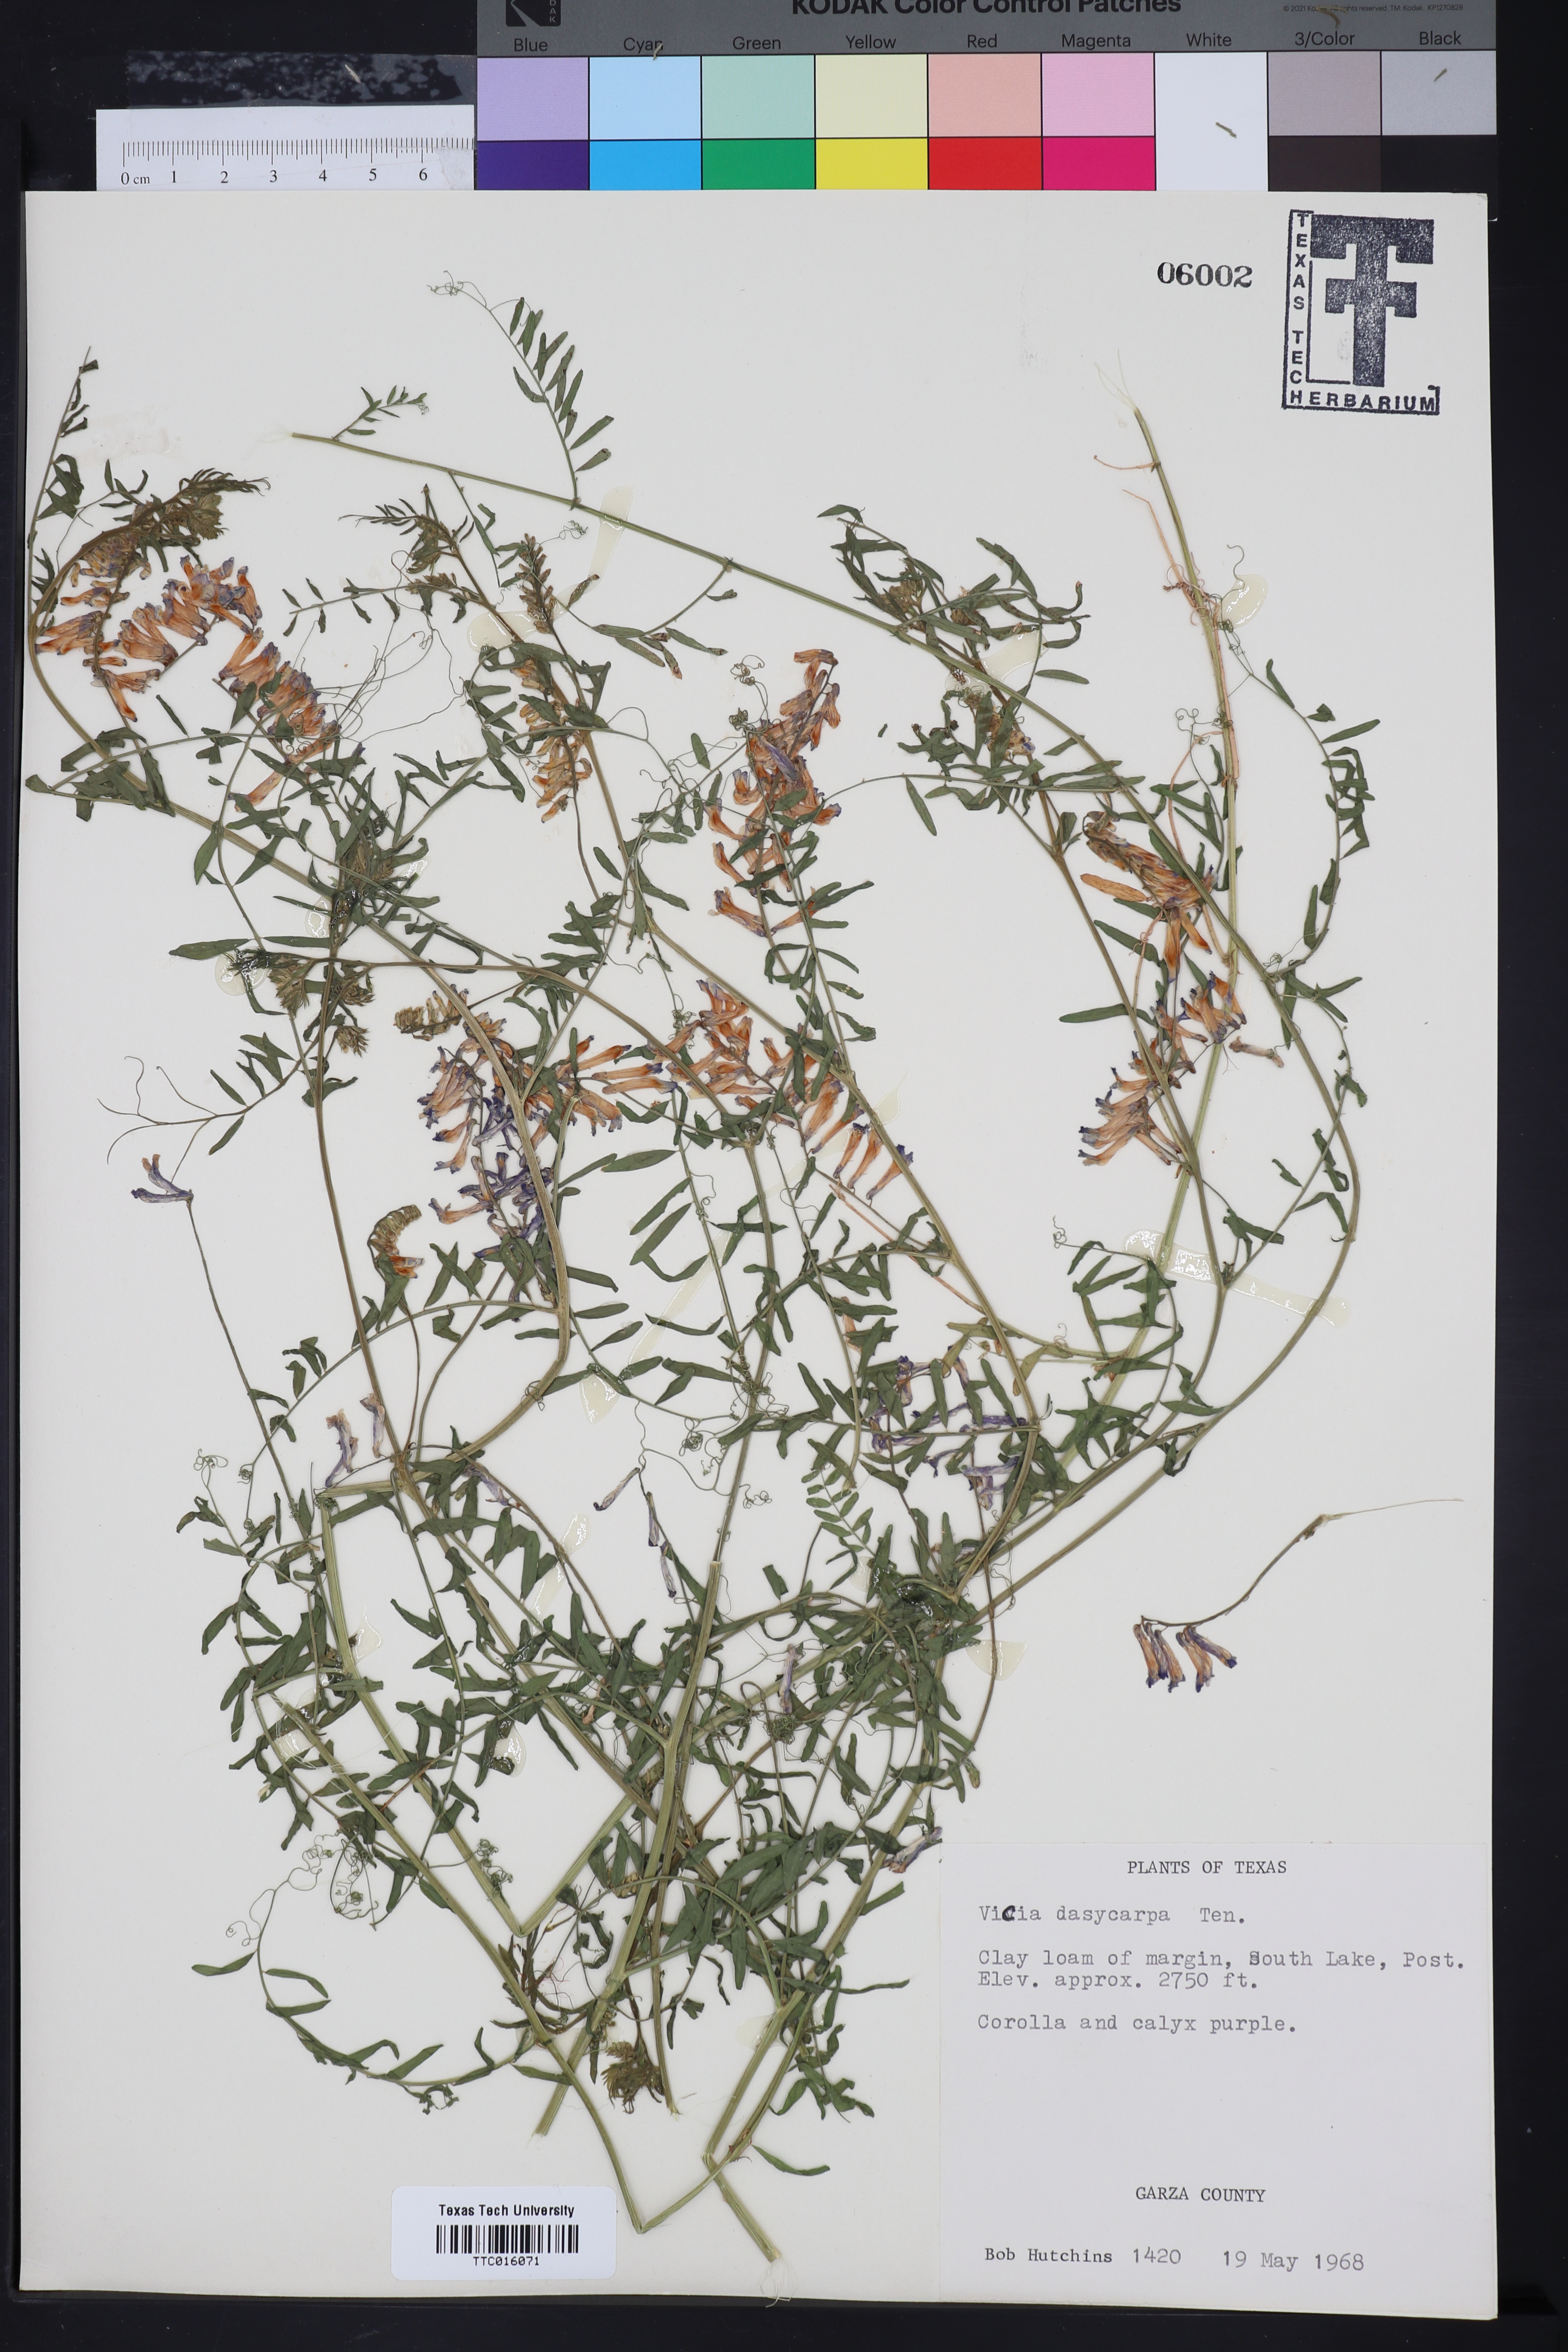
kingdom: Plantae
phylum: Tracheophyta
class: Magnoliopsida
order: Fabales
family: Fabaceae
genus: Vicia
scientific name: Vicia villosa
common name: Fodder vetch
